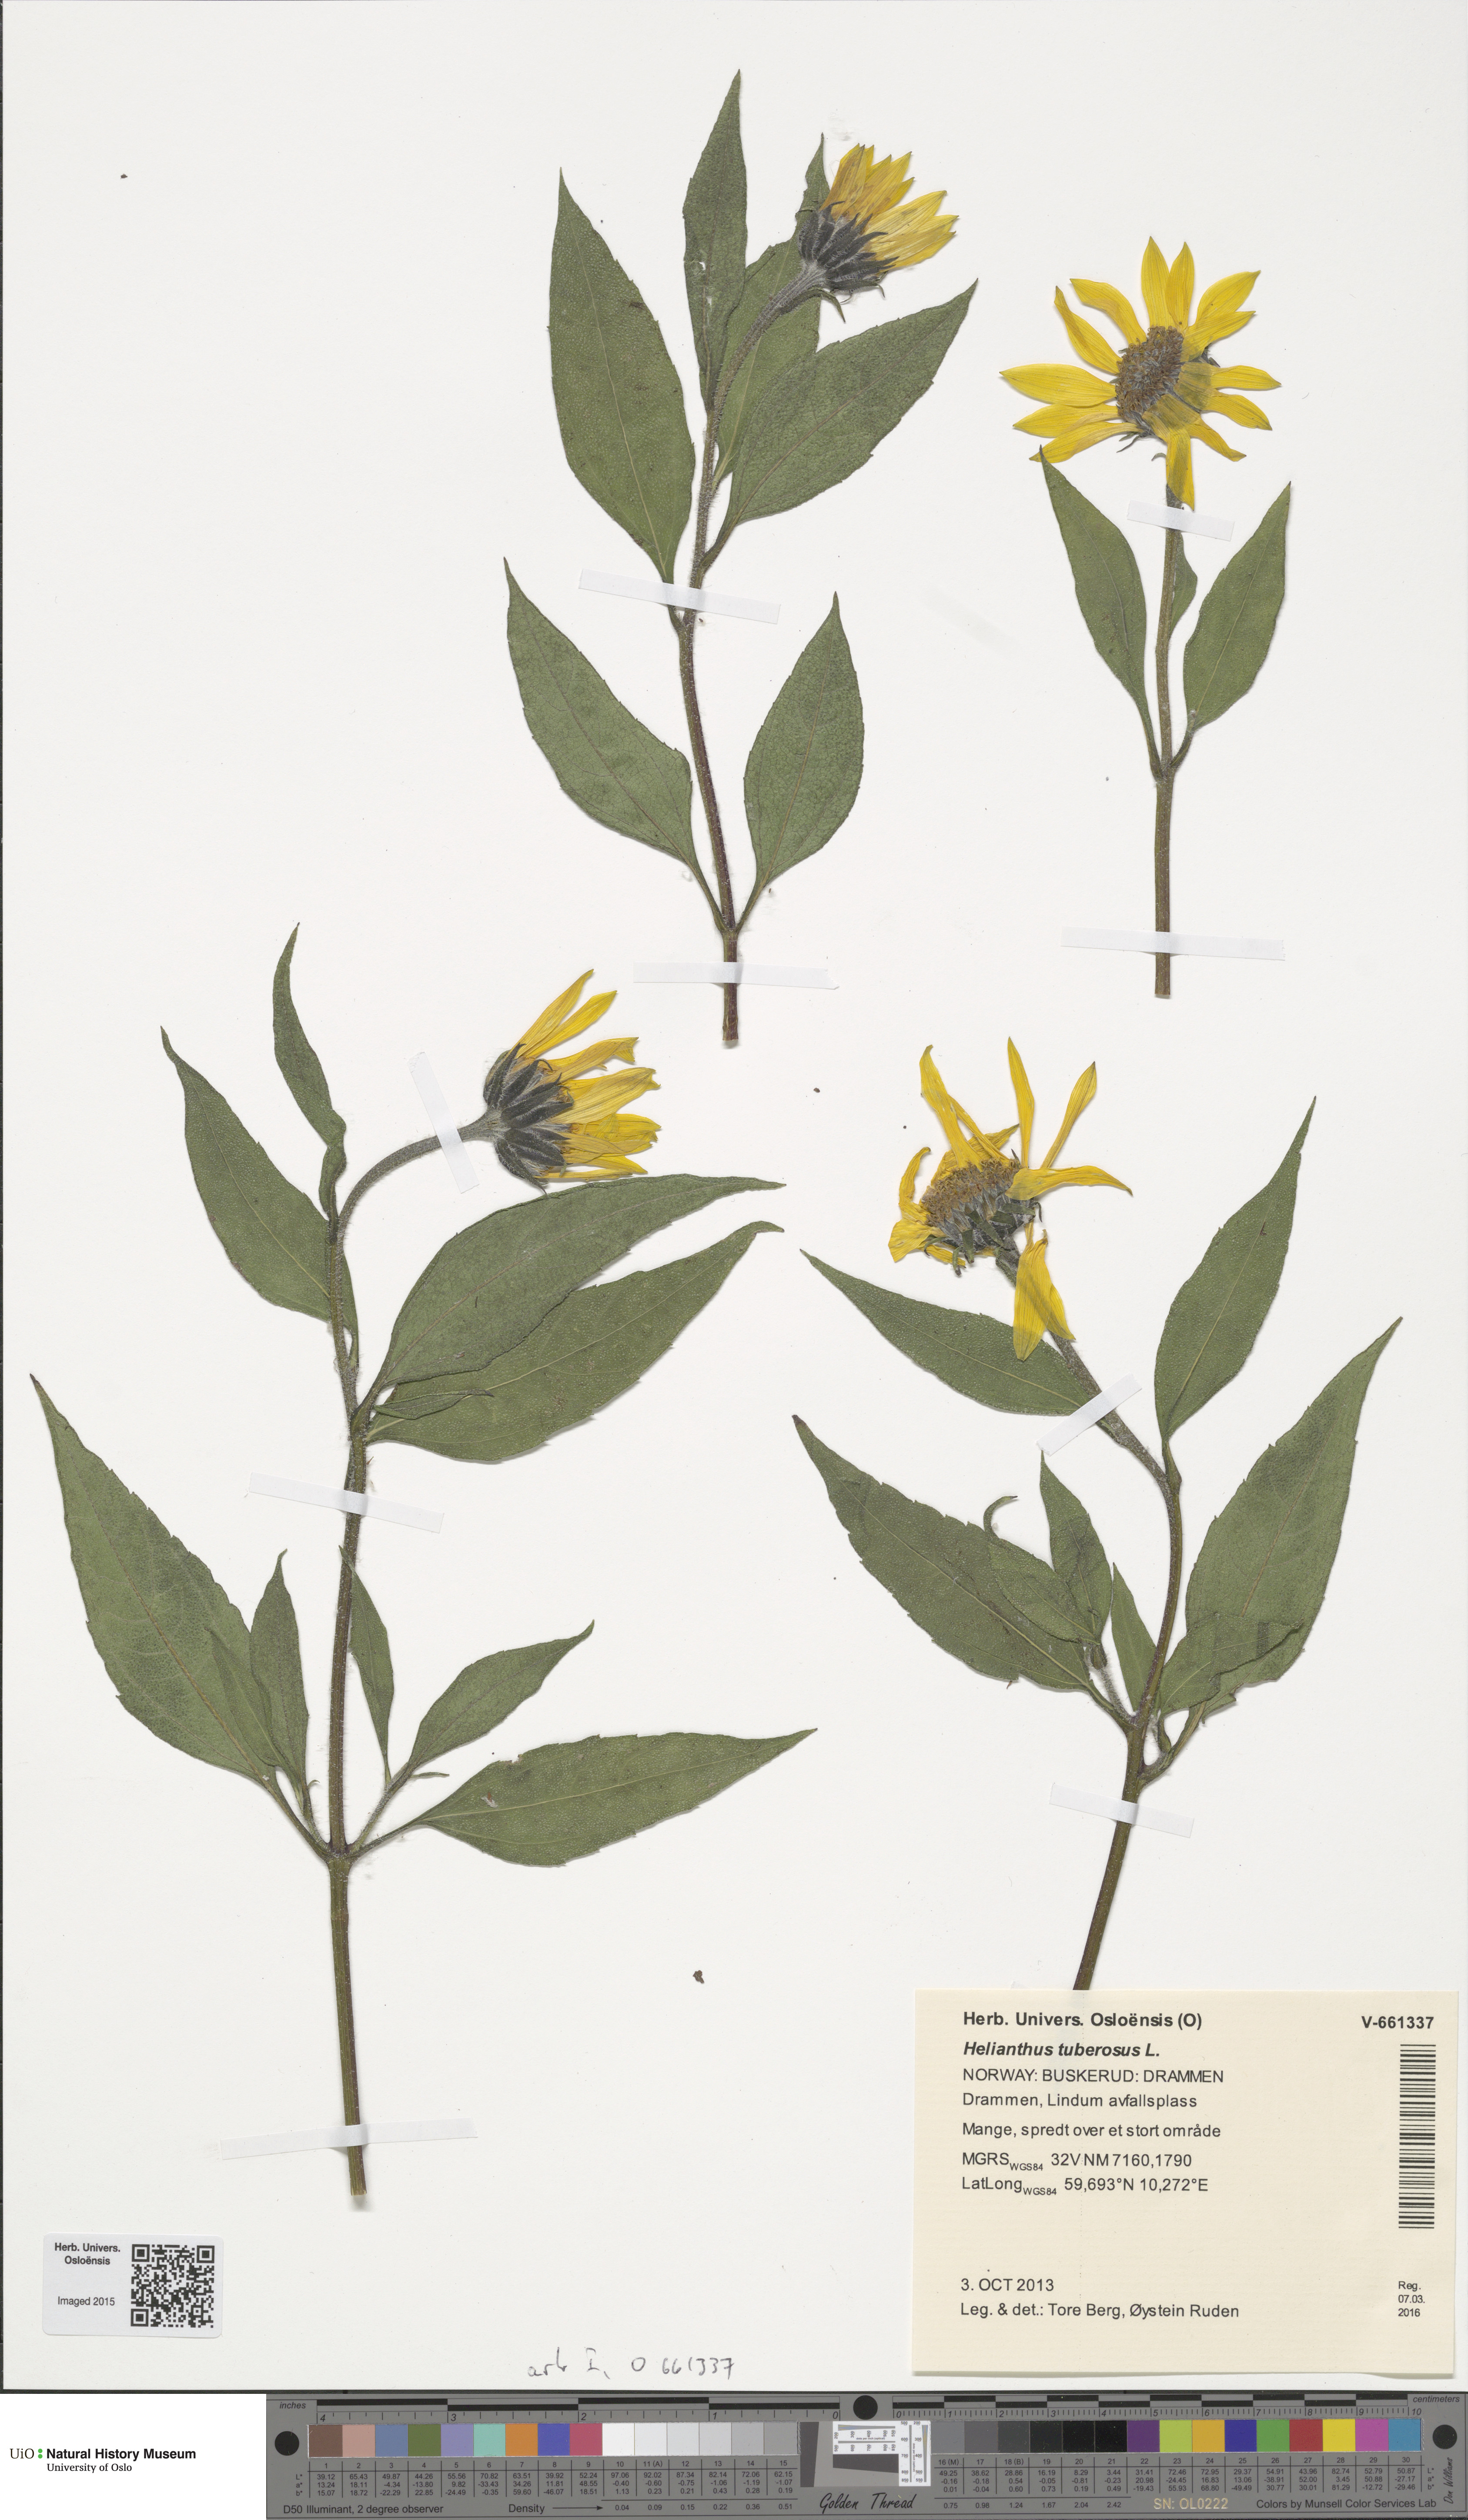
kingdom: Plantae
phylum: Tracheophyta
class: Magnoliopsida
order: Asterales
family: Asteraceae
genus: Helianthus
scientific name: Helianthus tuberosus
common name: Jerusalem artichoke
